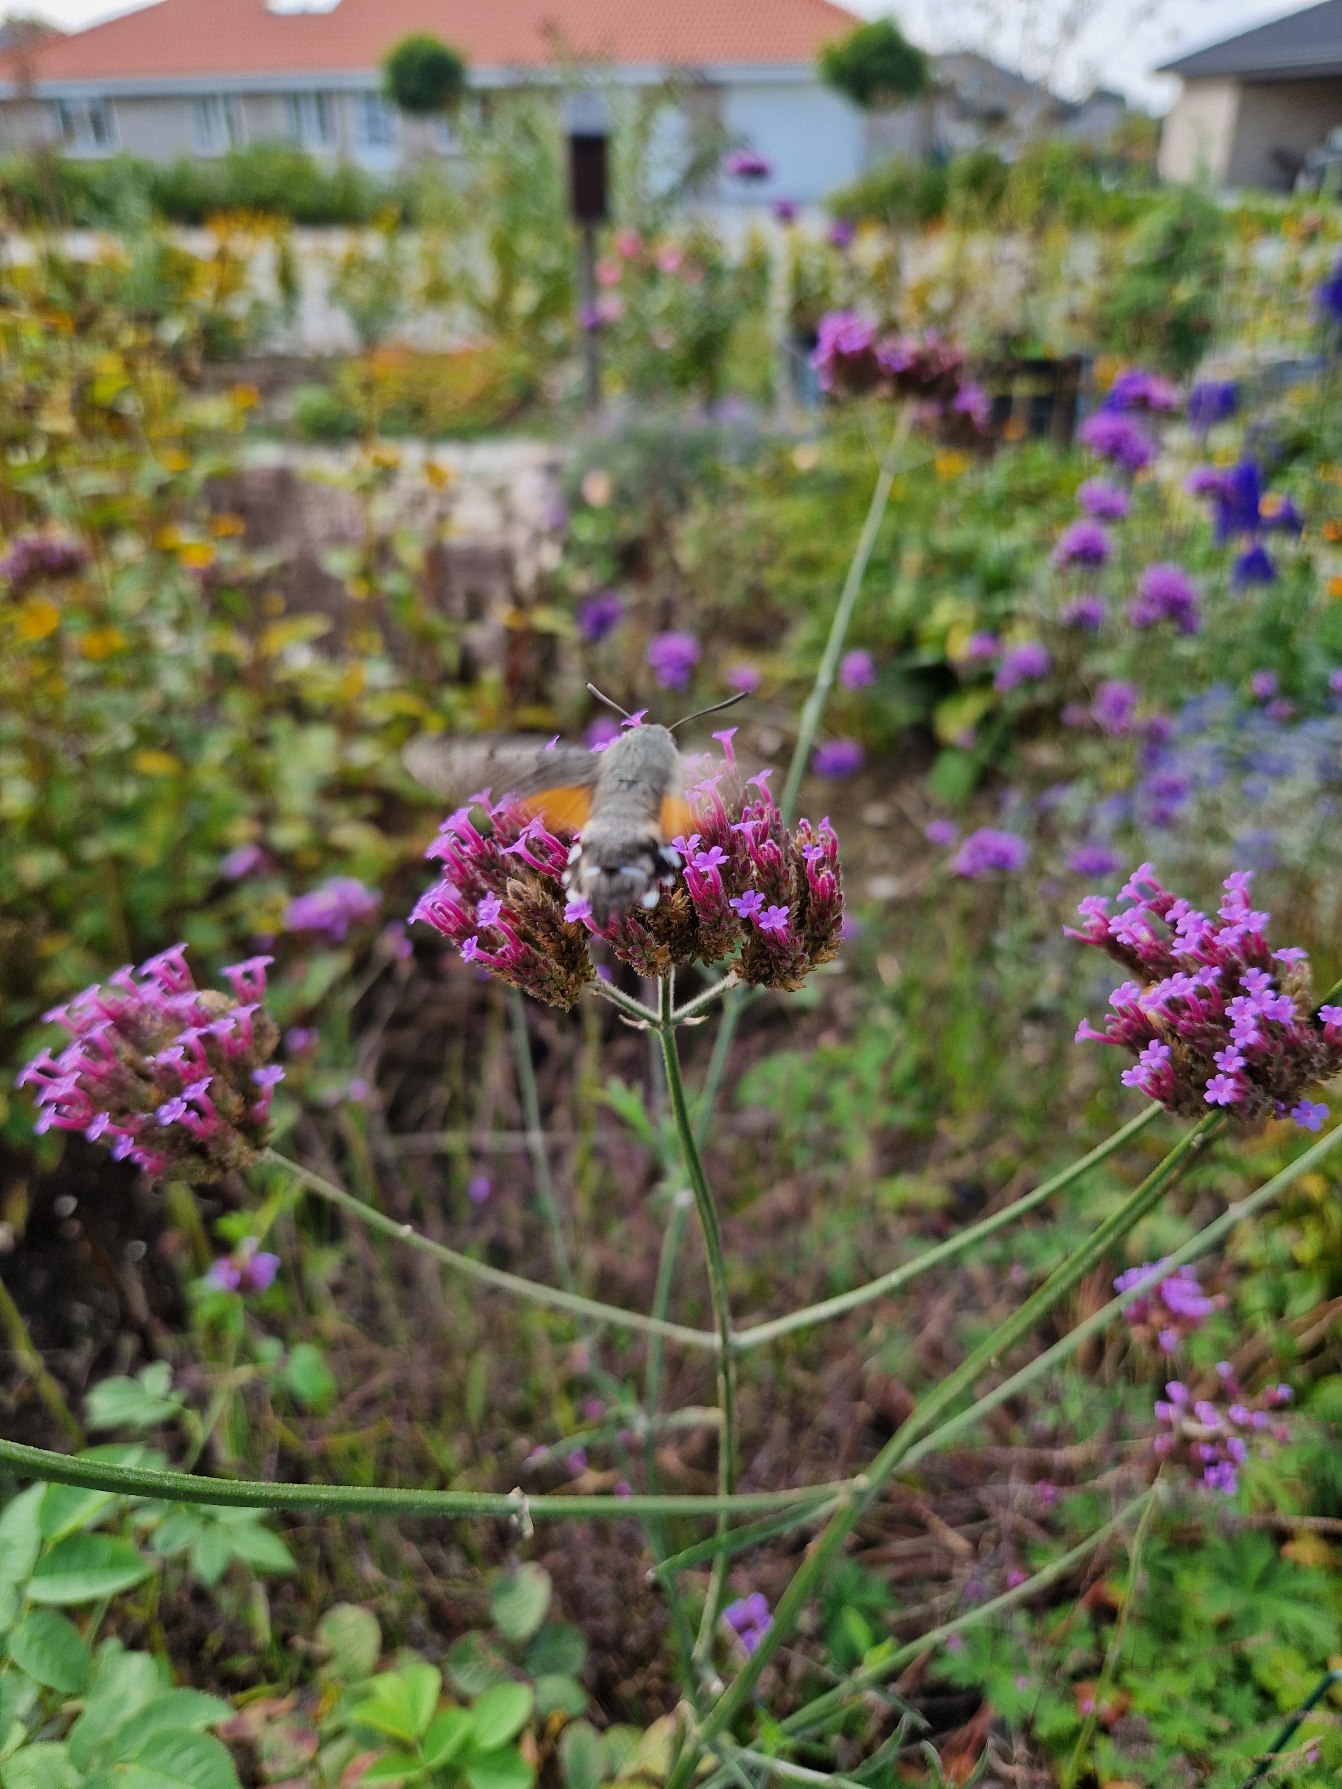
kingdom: Animalia
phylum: Arthropoda
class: Insecta
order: Lepidoptera
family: Sphingidae
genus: Macroglossum
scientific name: Macroglossum stellatarum
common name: Duehale
